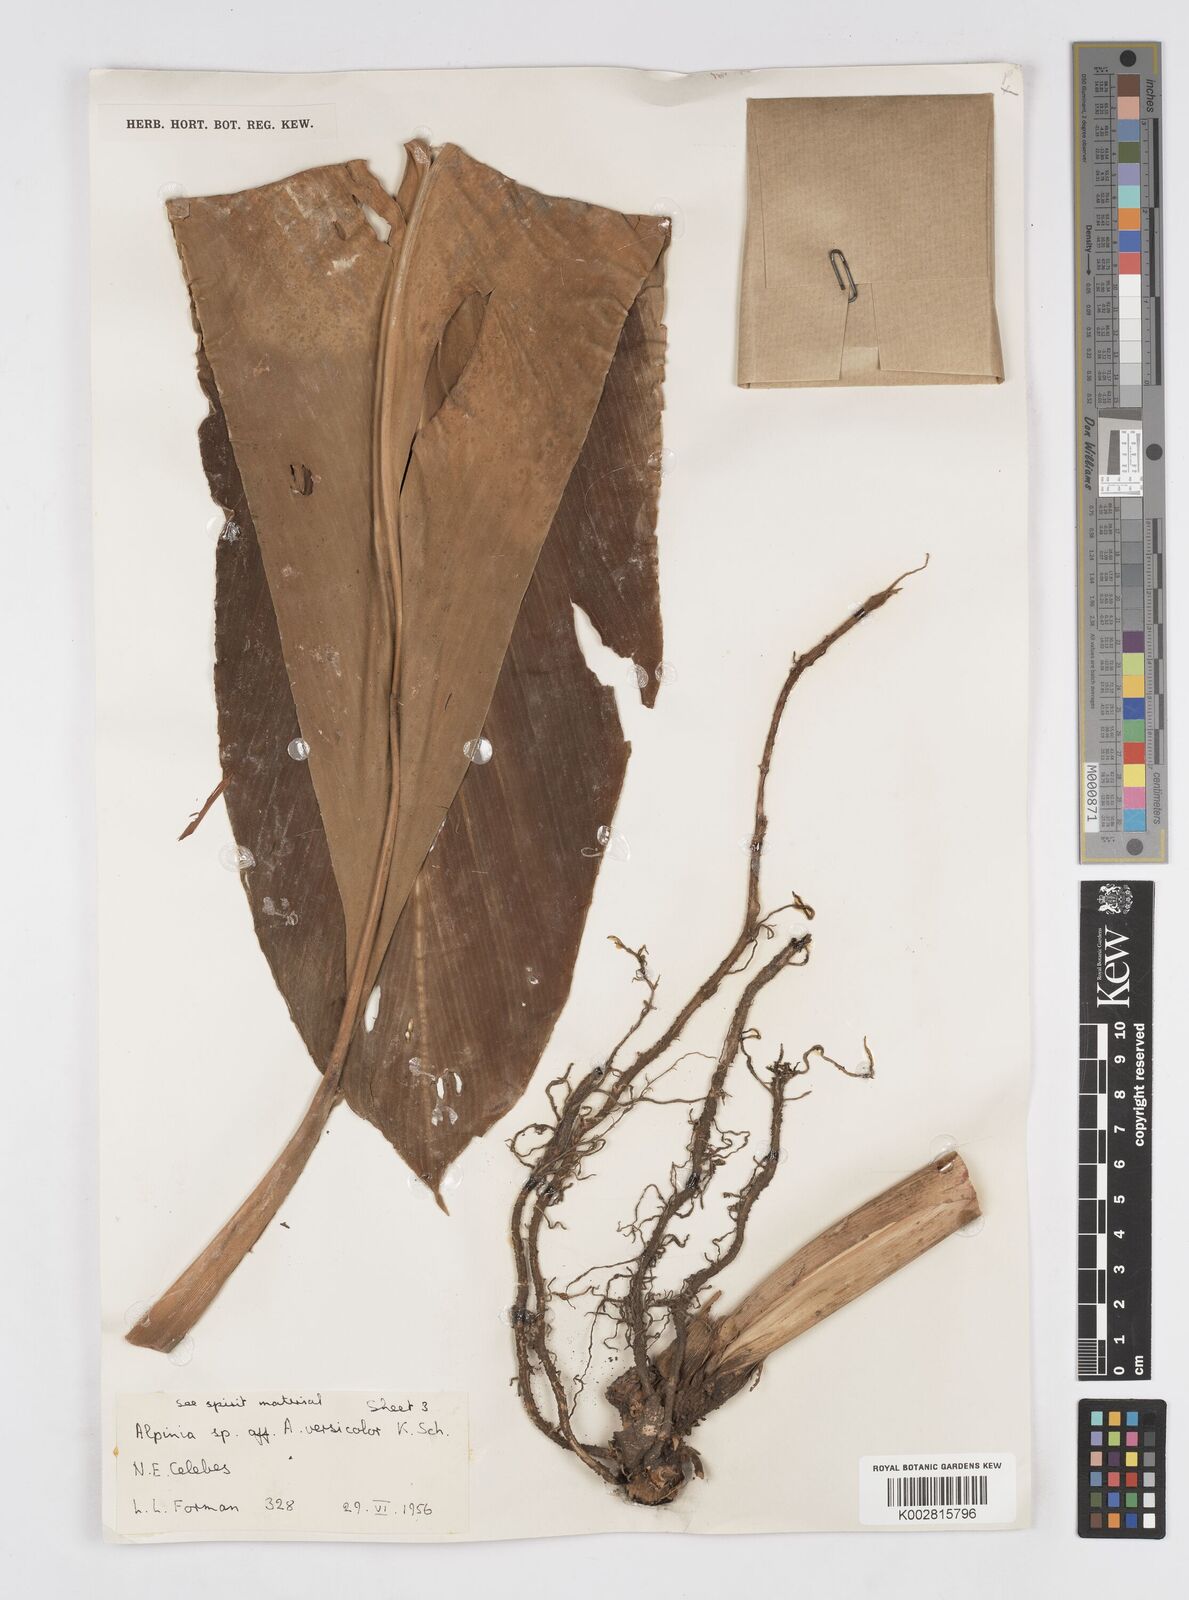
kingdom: Plantae
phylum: Tracheophyta
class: Liliopsida
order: Zingiberales
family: Zingiberaceae
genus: Alpinia
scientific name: Alpinia versicolor
